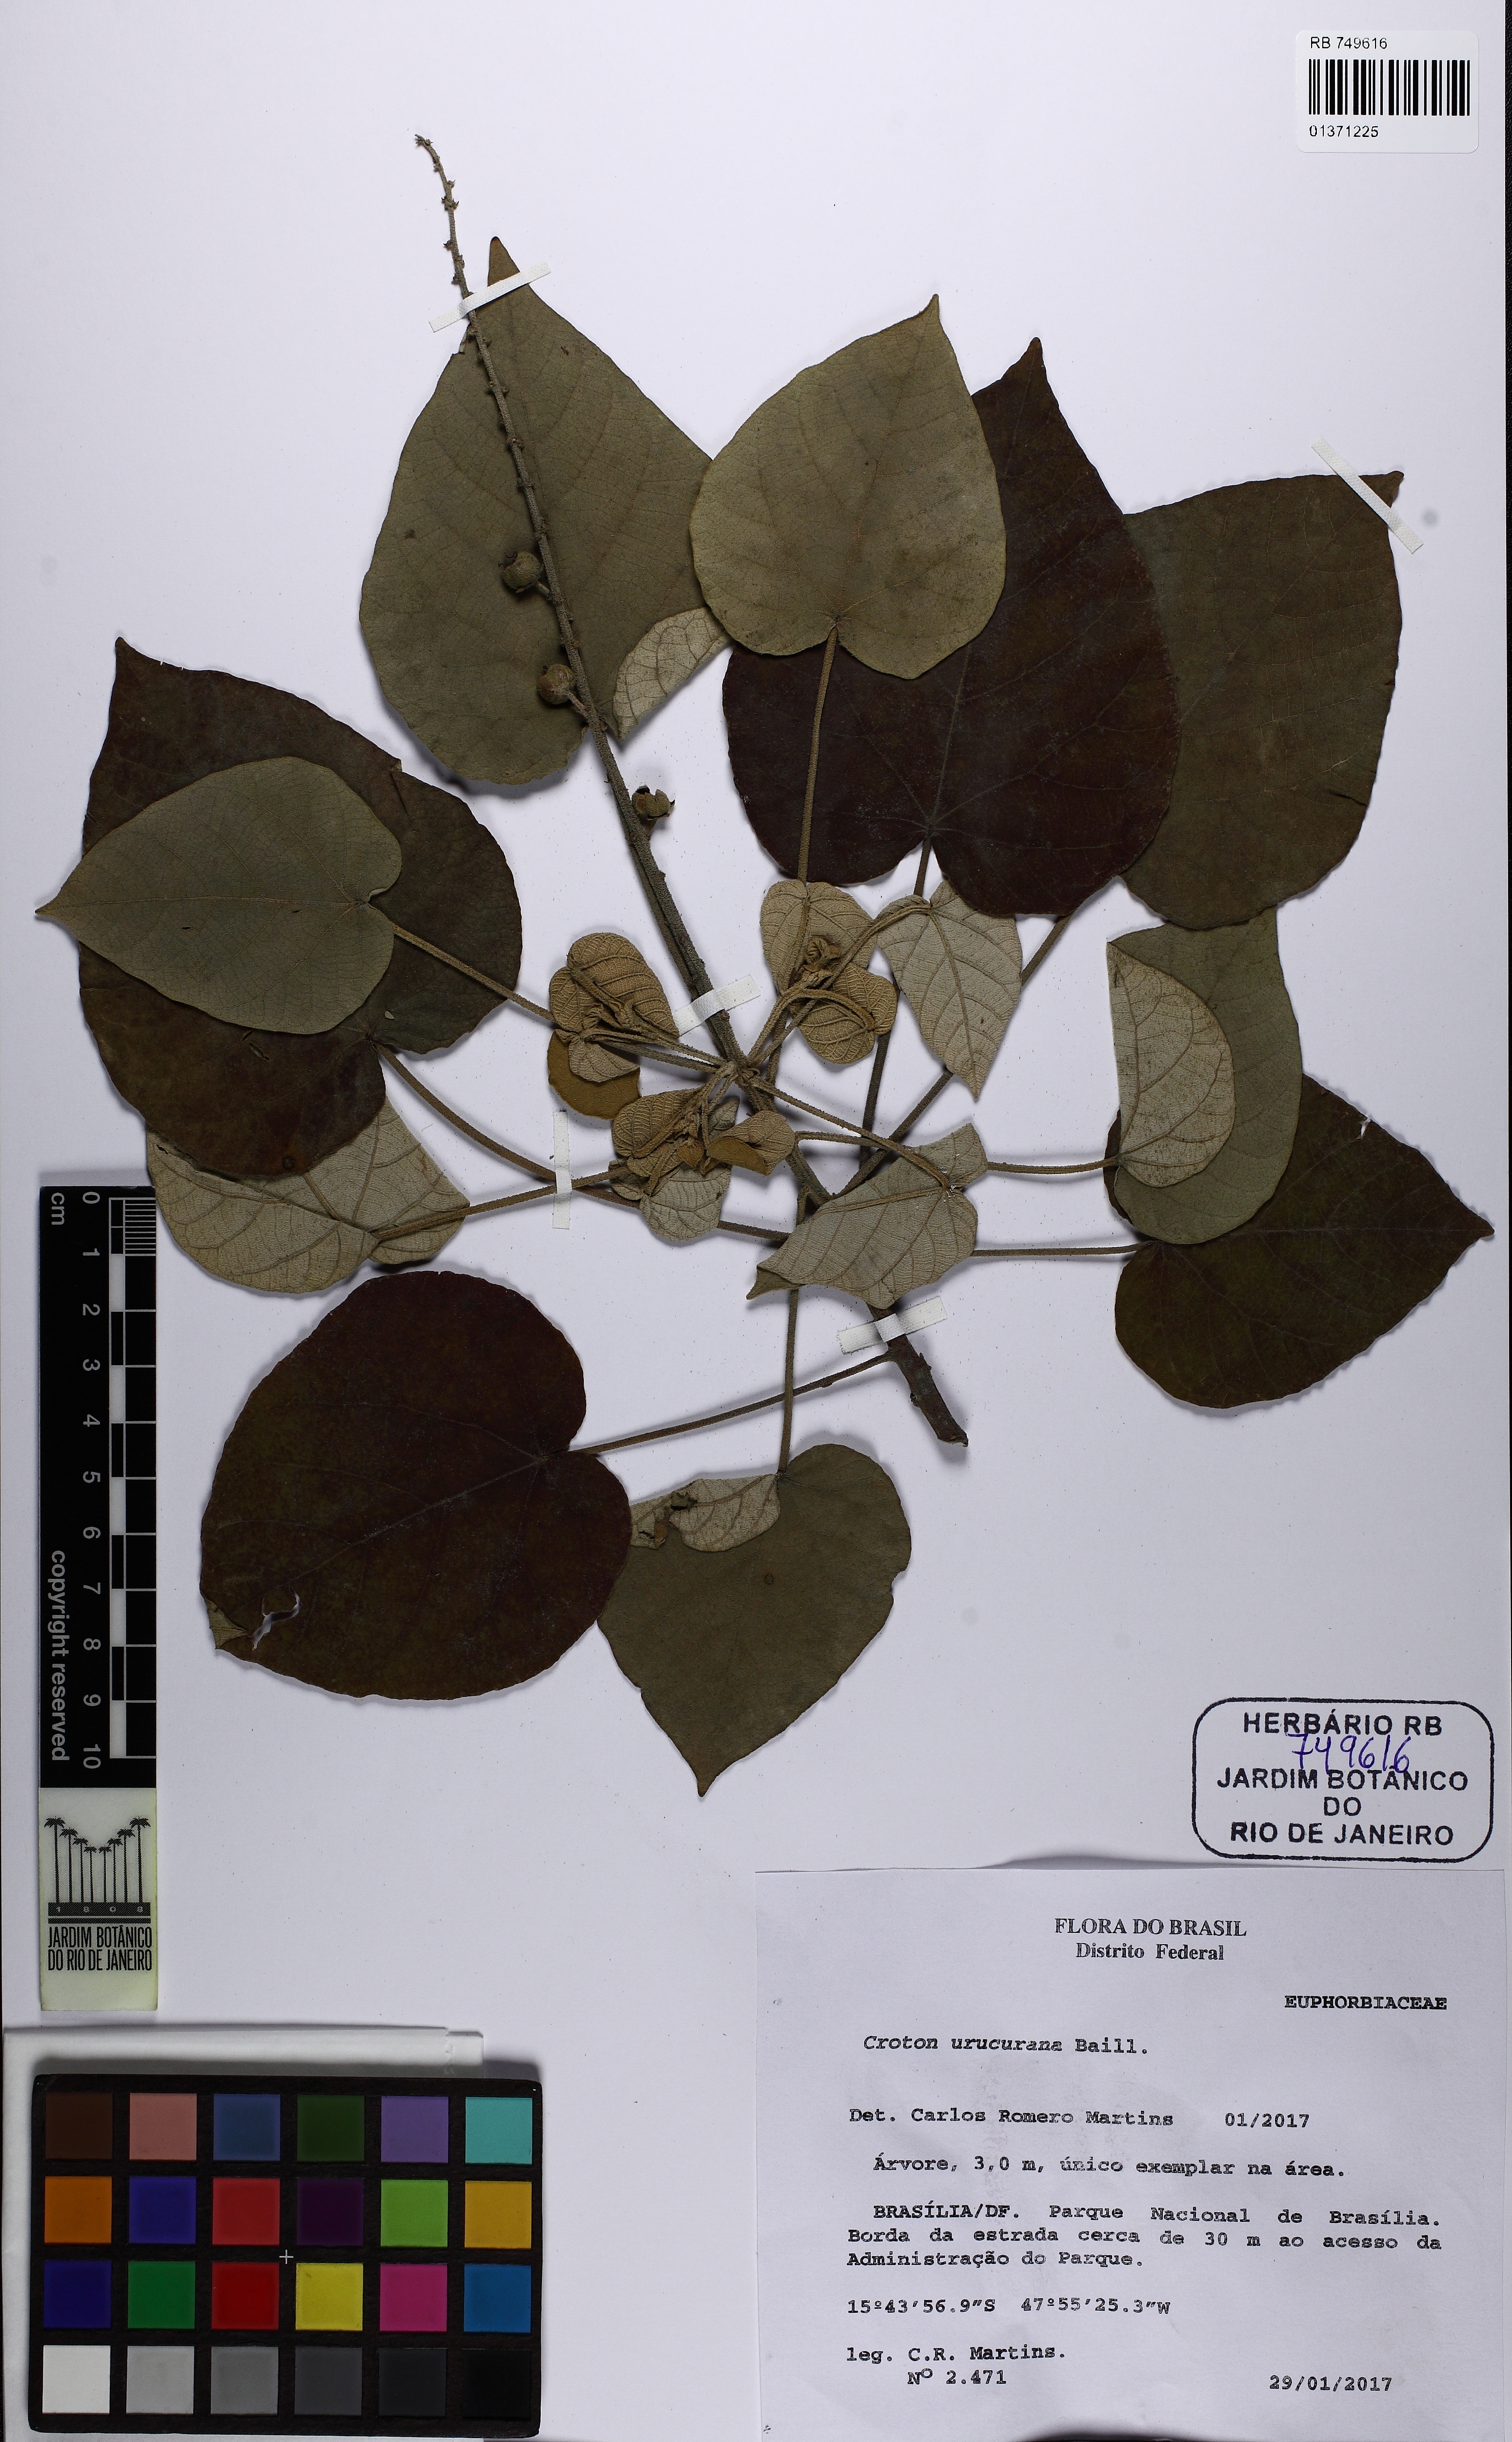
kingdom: Plantae
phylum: Tracheophyta
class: Magnoliopsida
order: Malpighiales
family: Euphorbiaceae
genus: Croton
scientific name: Croton urucurana
